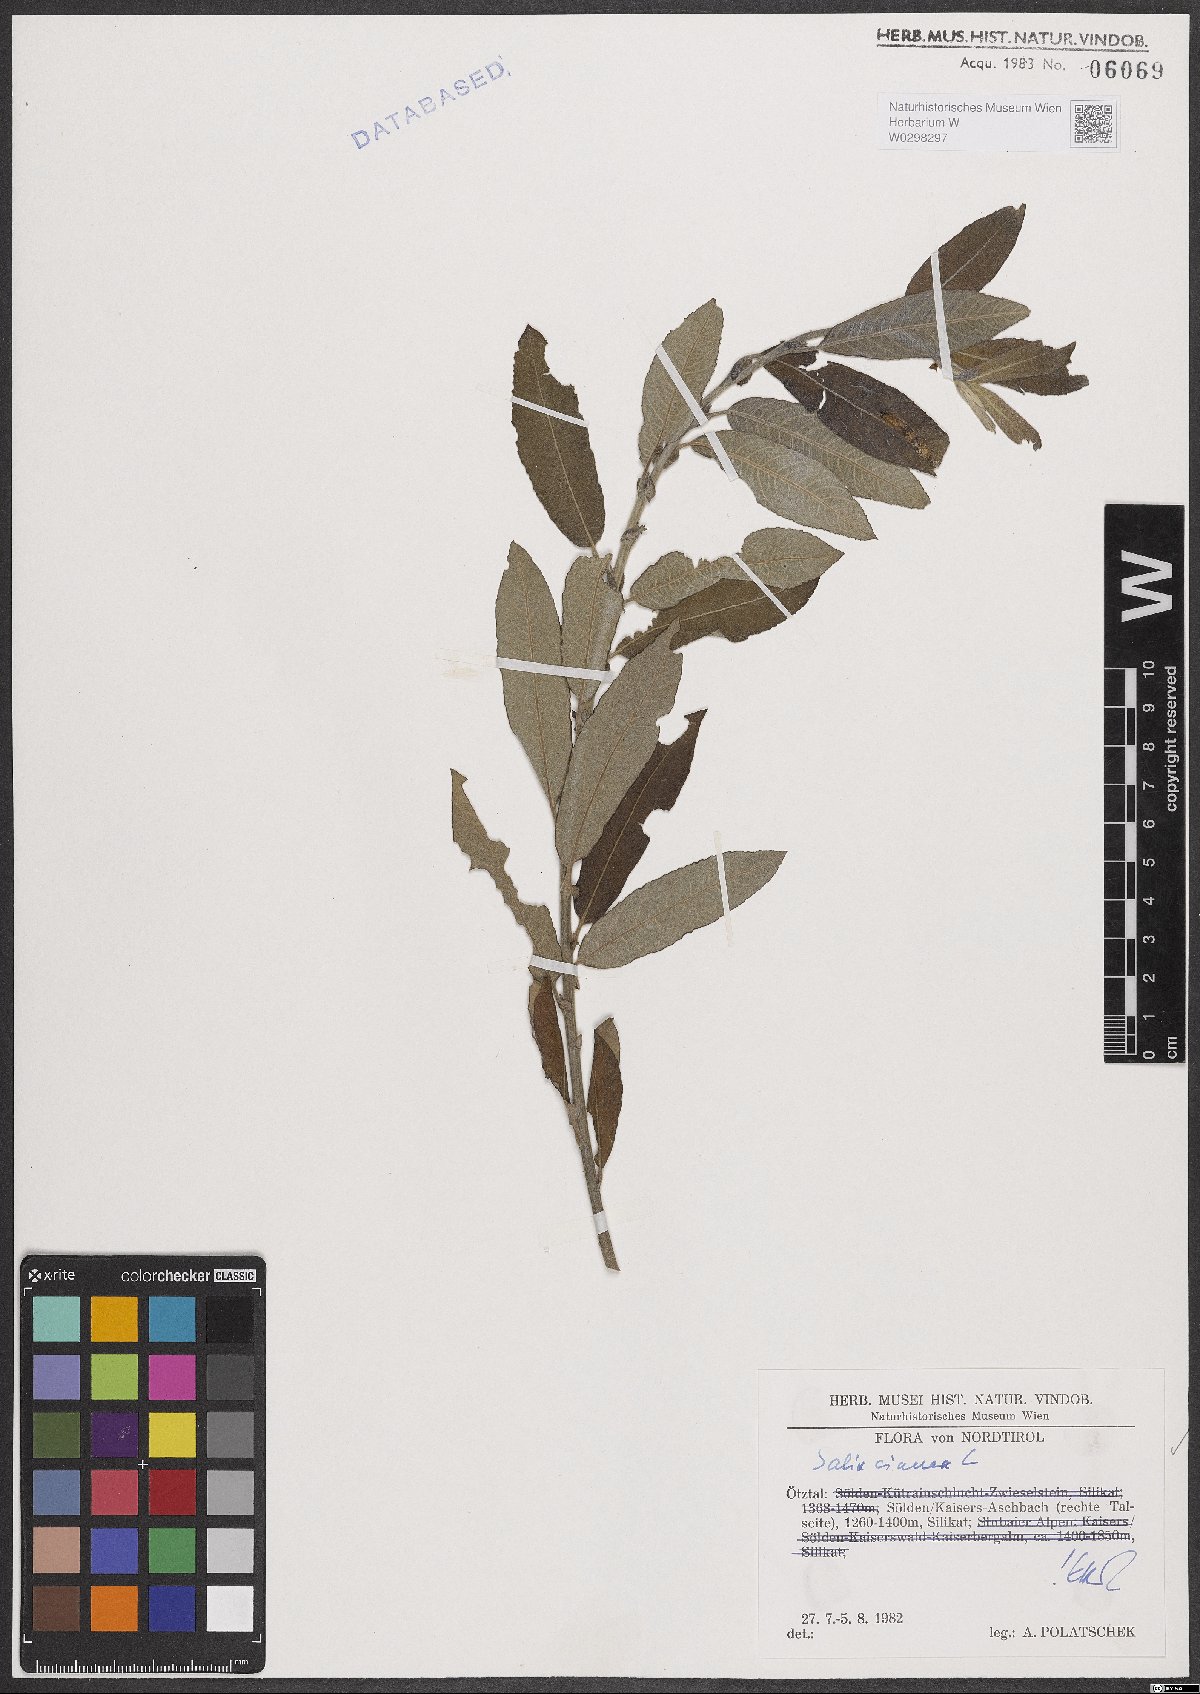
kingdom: Plantae
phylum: Tracheophyta
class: Magnoliopsida
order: Malpighiales
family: Salicaceae
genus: Salix
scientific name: Salix cinerea
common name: Common sallow
